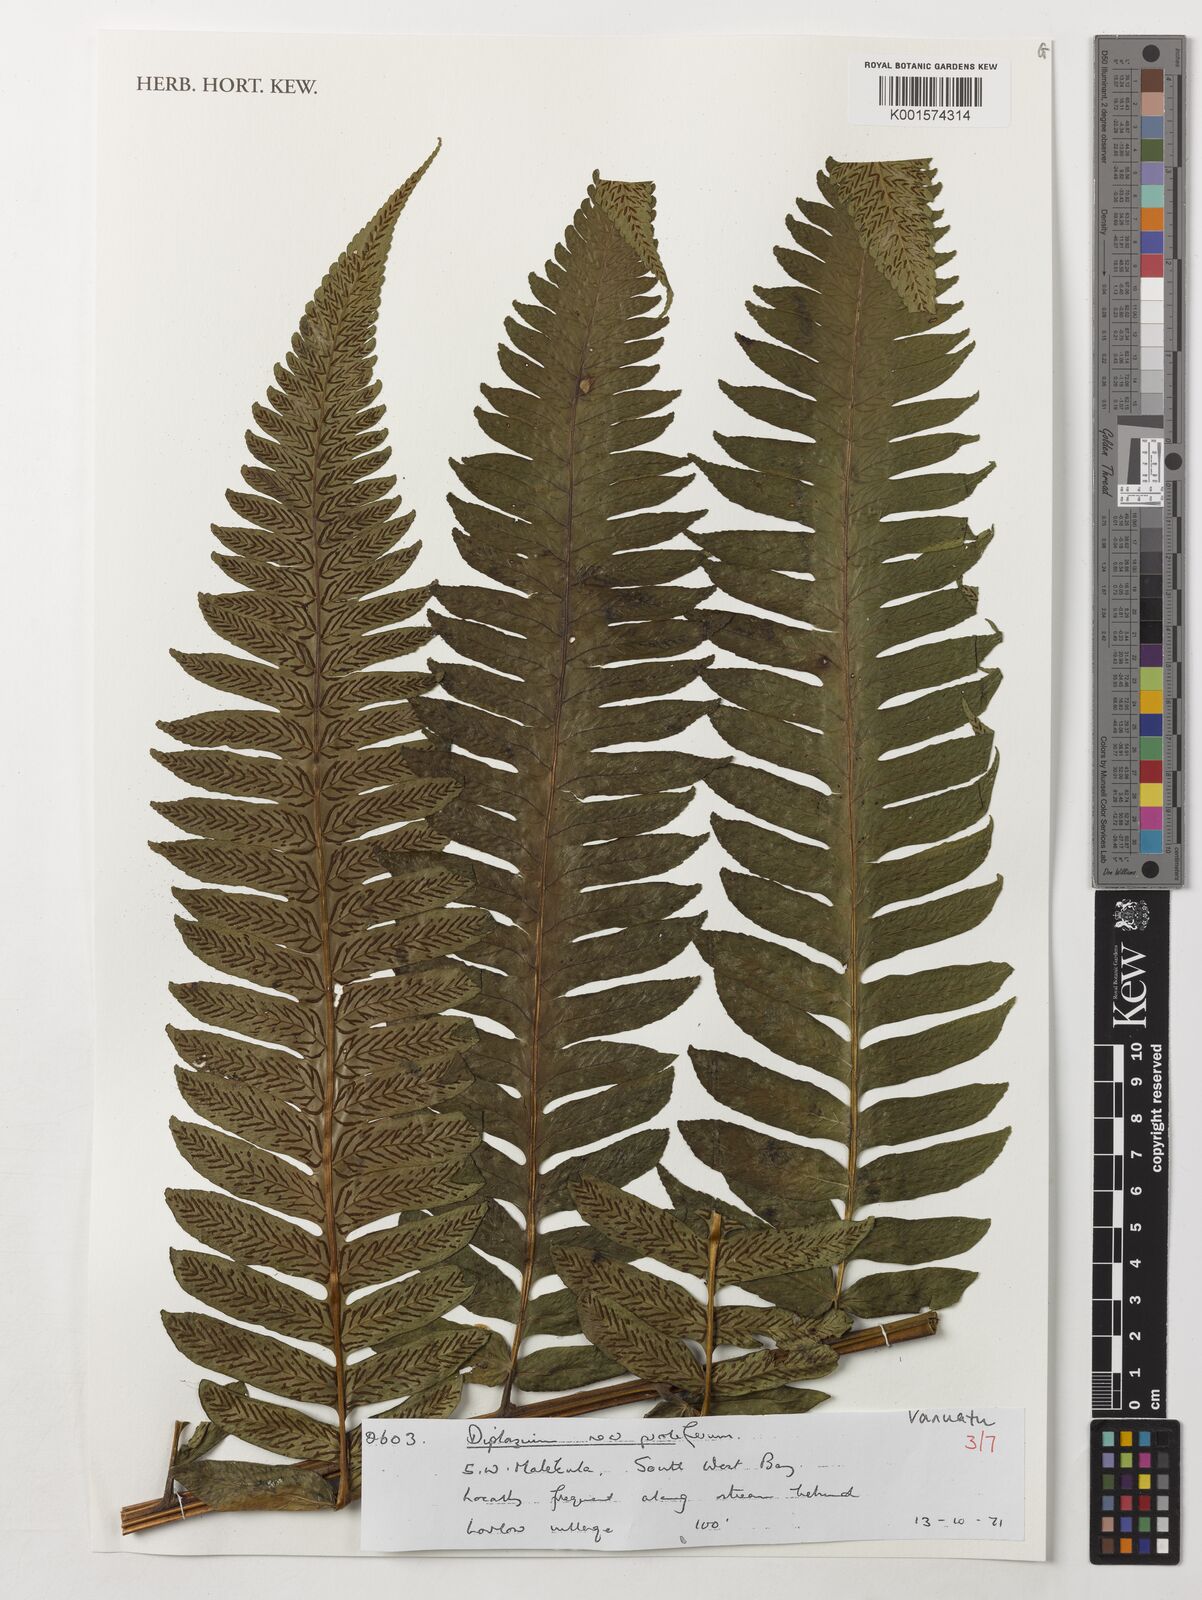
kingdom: Plantae
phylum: Tracheophyta
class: Polypodiopsida
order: Polypodiales
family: Athyriaceae
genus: Diplazium
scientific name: Diplazium proliferum
